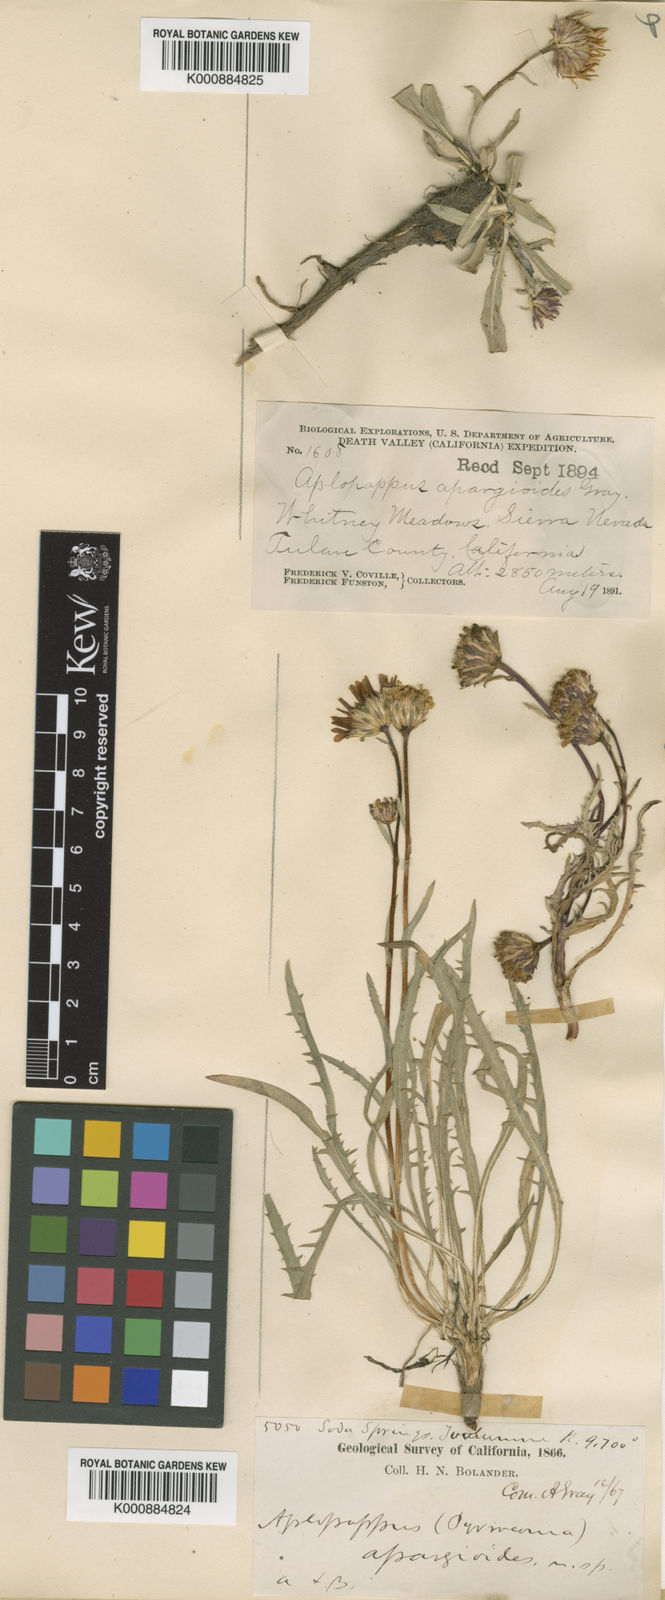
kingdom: Plantae
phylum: Tracheophyta
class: Magnoliopsida
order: Asterales
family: Asteraceae
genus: Pyrrocoma
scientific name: Pyrrocoma apargioides
